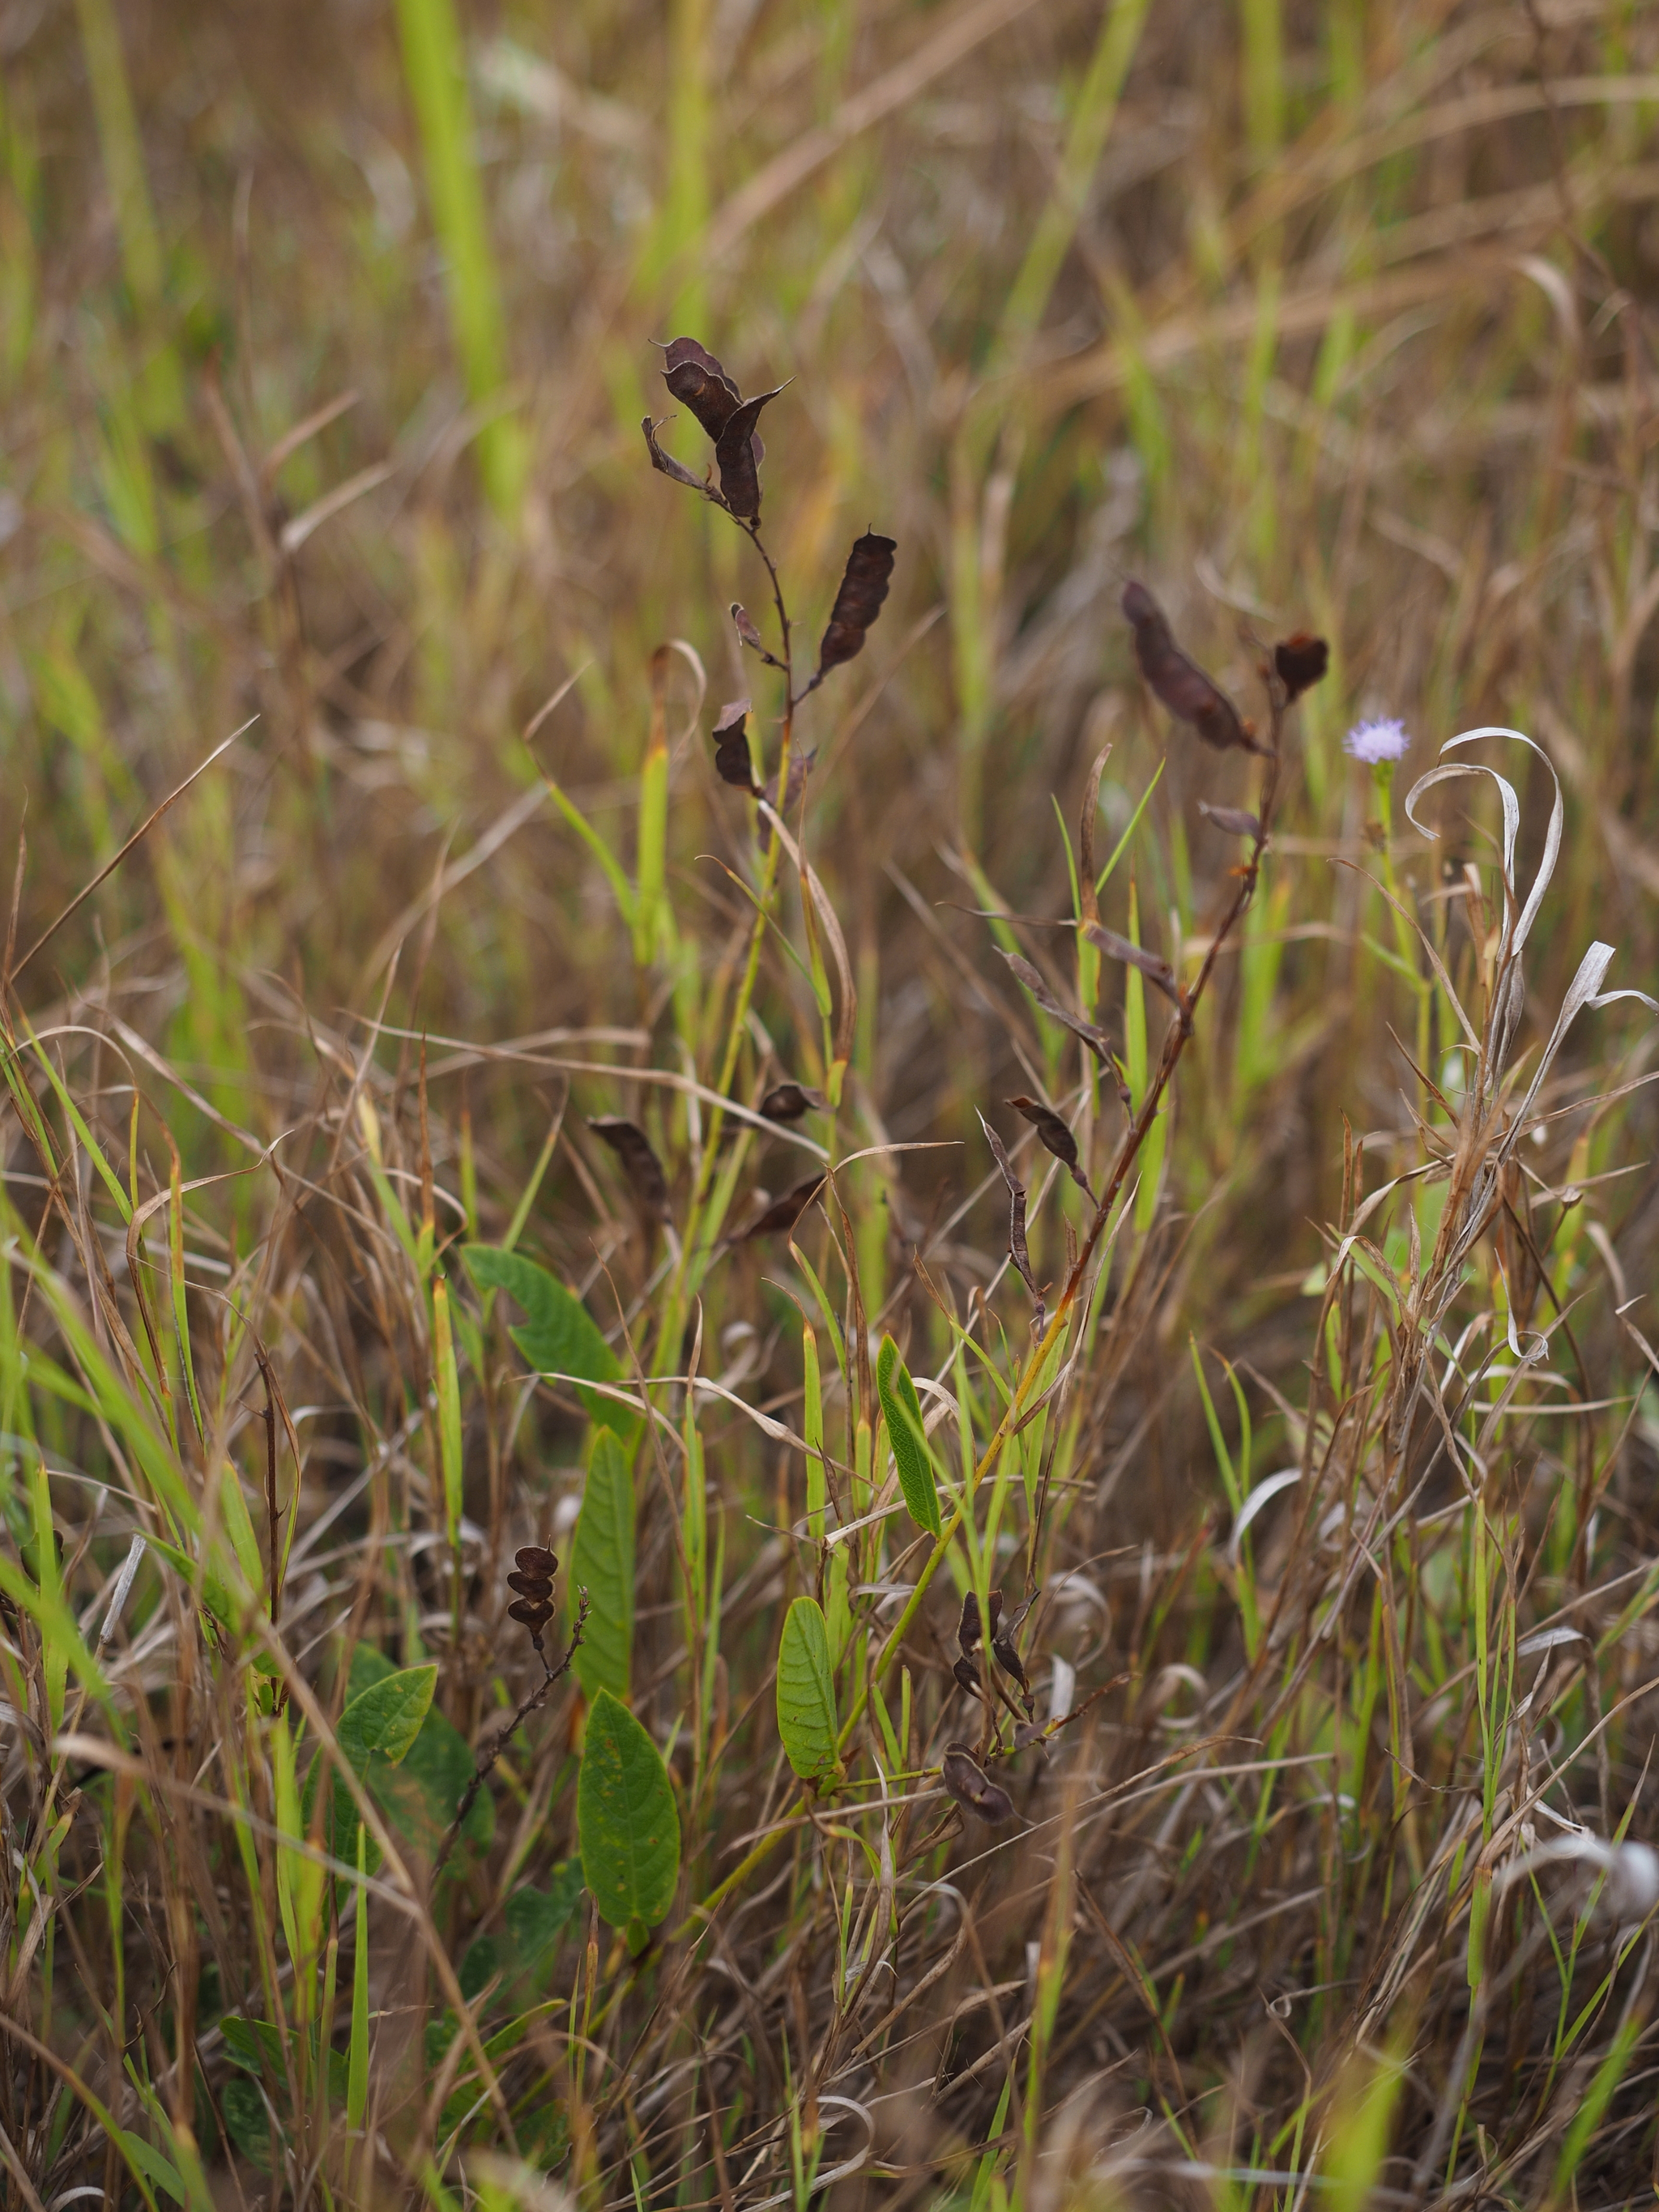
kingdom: Plantae
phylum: Tracheophyta
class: Magnoliopsida
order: Fabales
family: Fabaceae
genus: Tadehagi
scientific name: Tadehagi pseudotriquetrum
